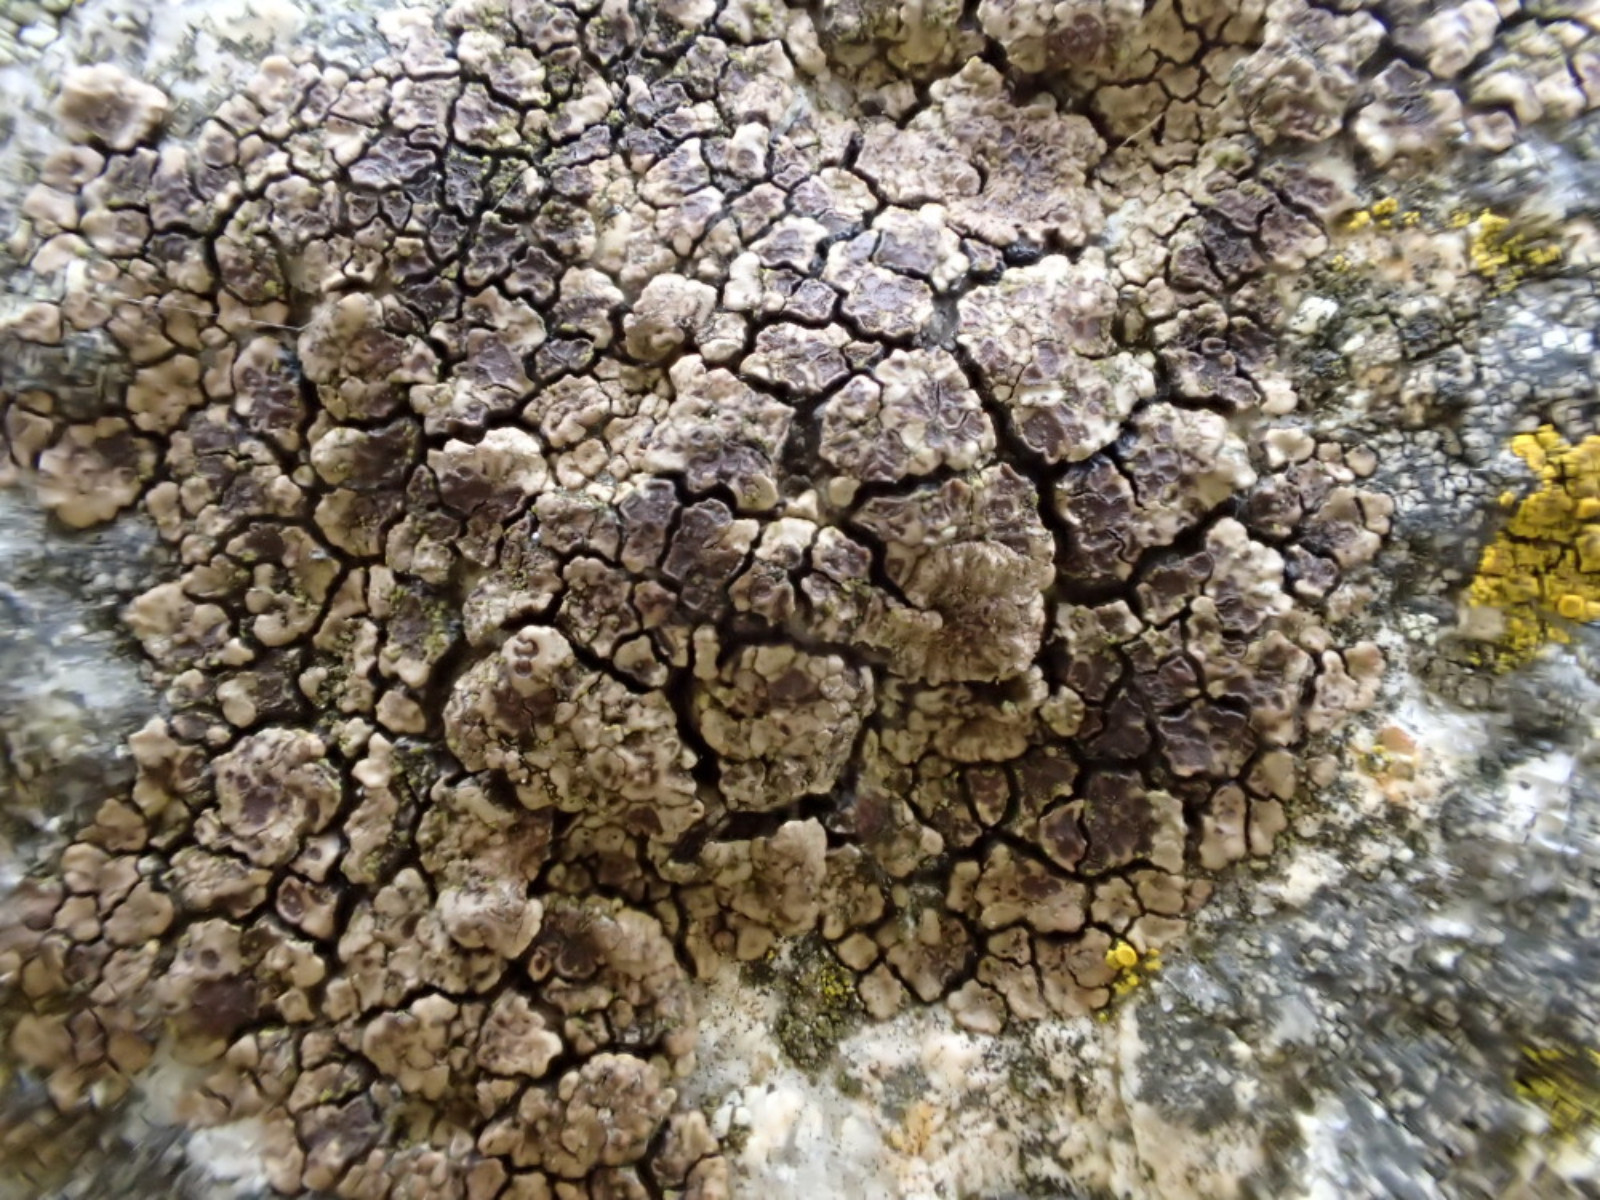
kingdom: Fungi
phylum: Ascomycota
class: Lecanoromycetes
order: Acarosporales
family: Acarosporaceae
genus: Acarospora
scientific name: Acarospora fuscata
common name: brun småsporelav
